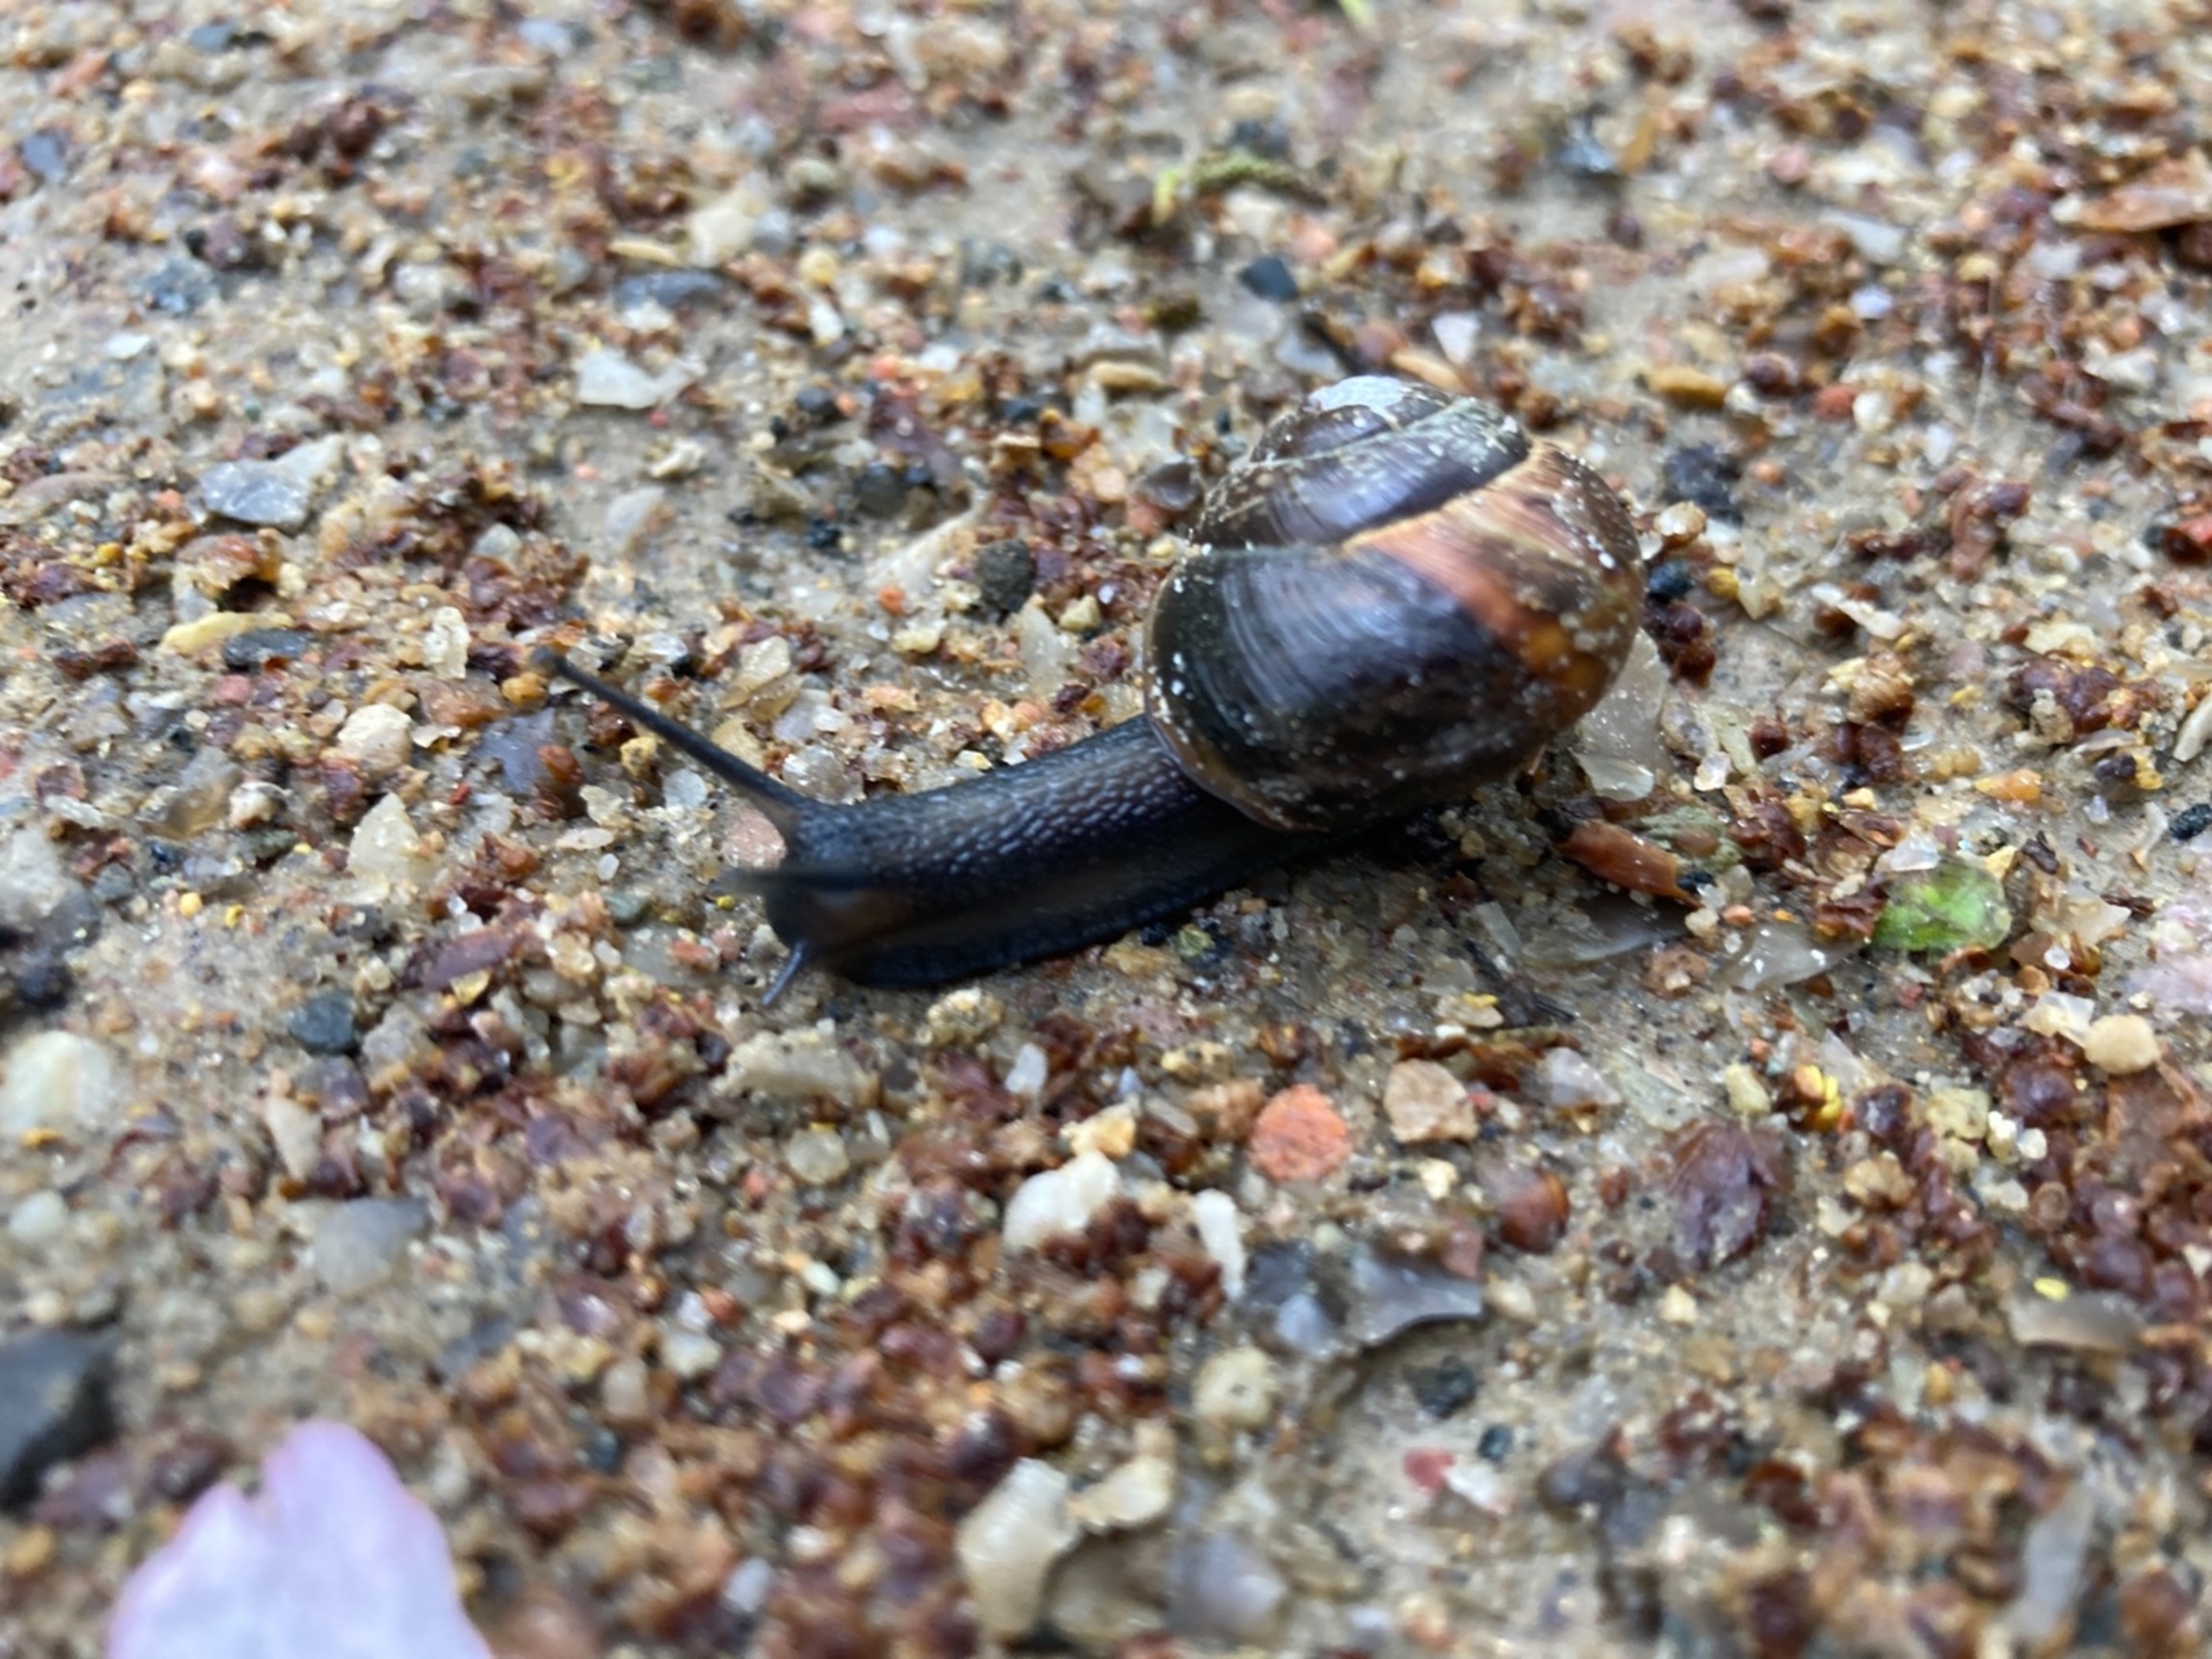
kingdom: Animalia
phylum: Mollusca
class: Gastropoda
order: Stylommatophora
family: Helicidae
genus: Arianta
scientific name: Arianta arbustorum
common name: Kratsnegl
